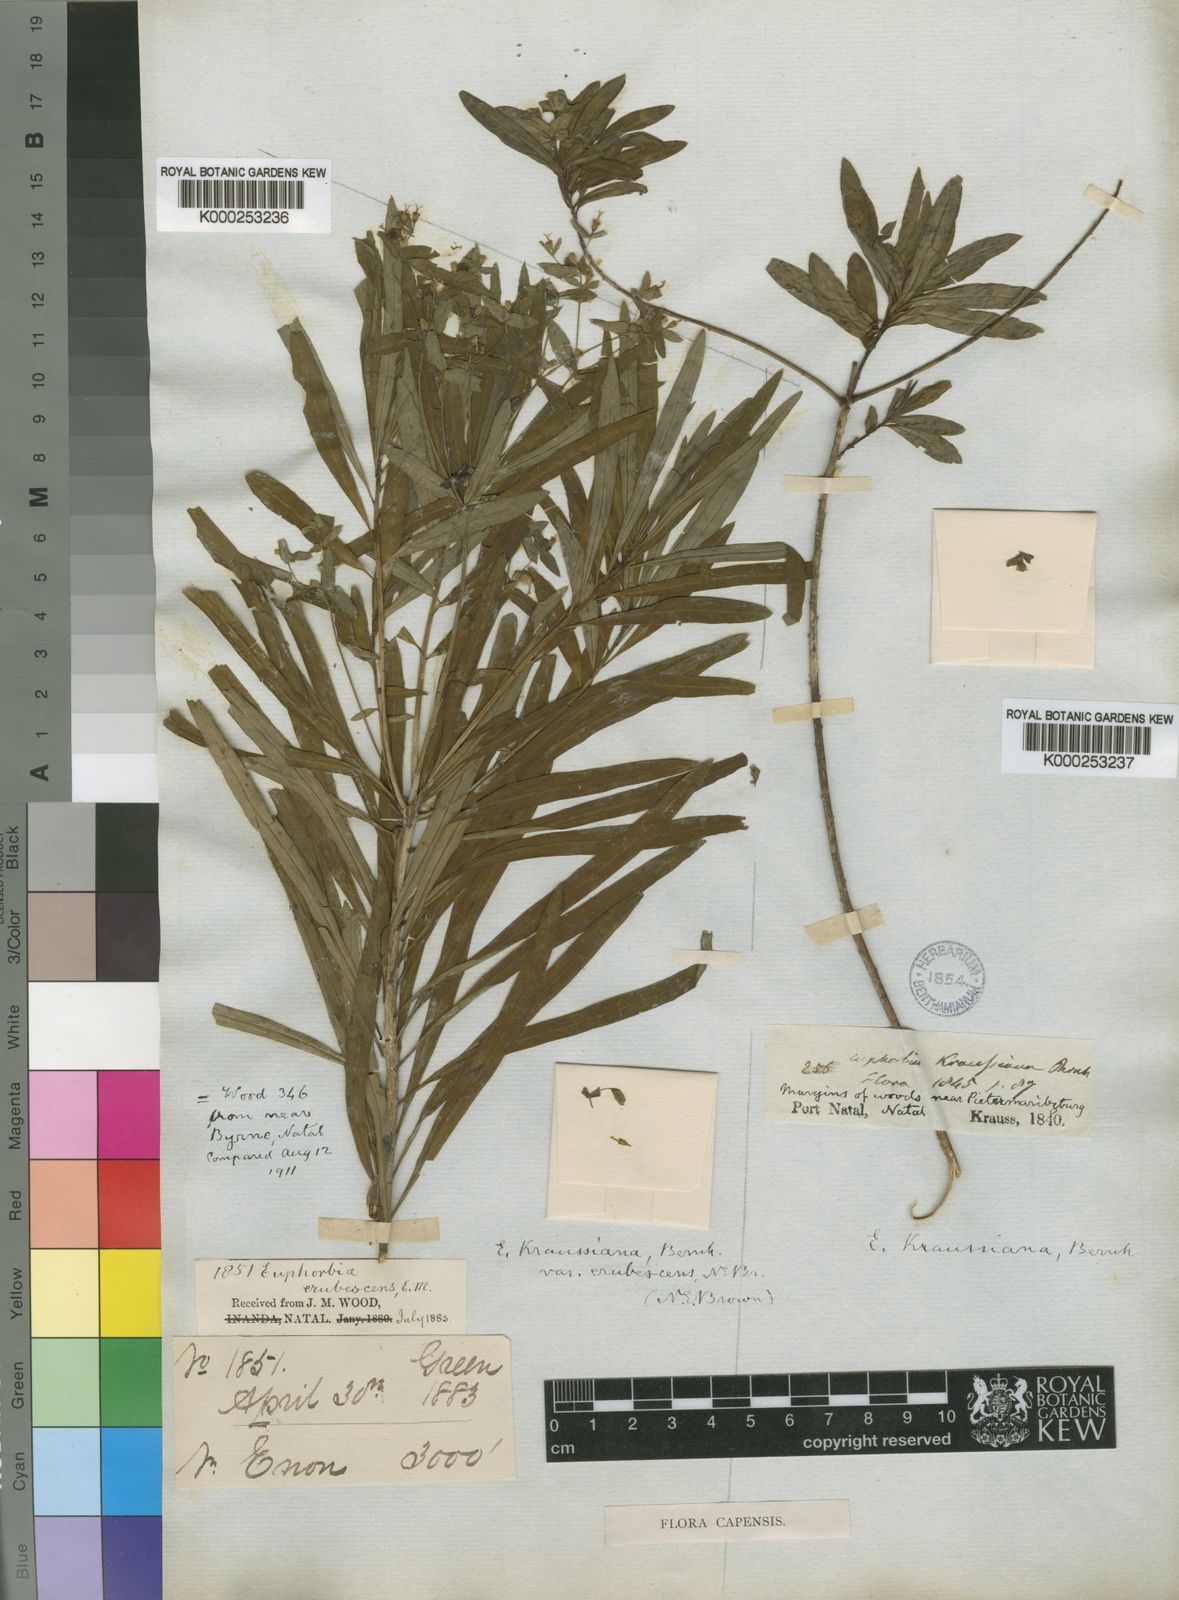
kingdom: Plantae
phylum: Tracheophyta
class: Magnoliopsida
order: Malpighiales
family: Euphorbiaceae
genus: Euphorbia
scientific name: Euphorbia kraussiana
